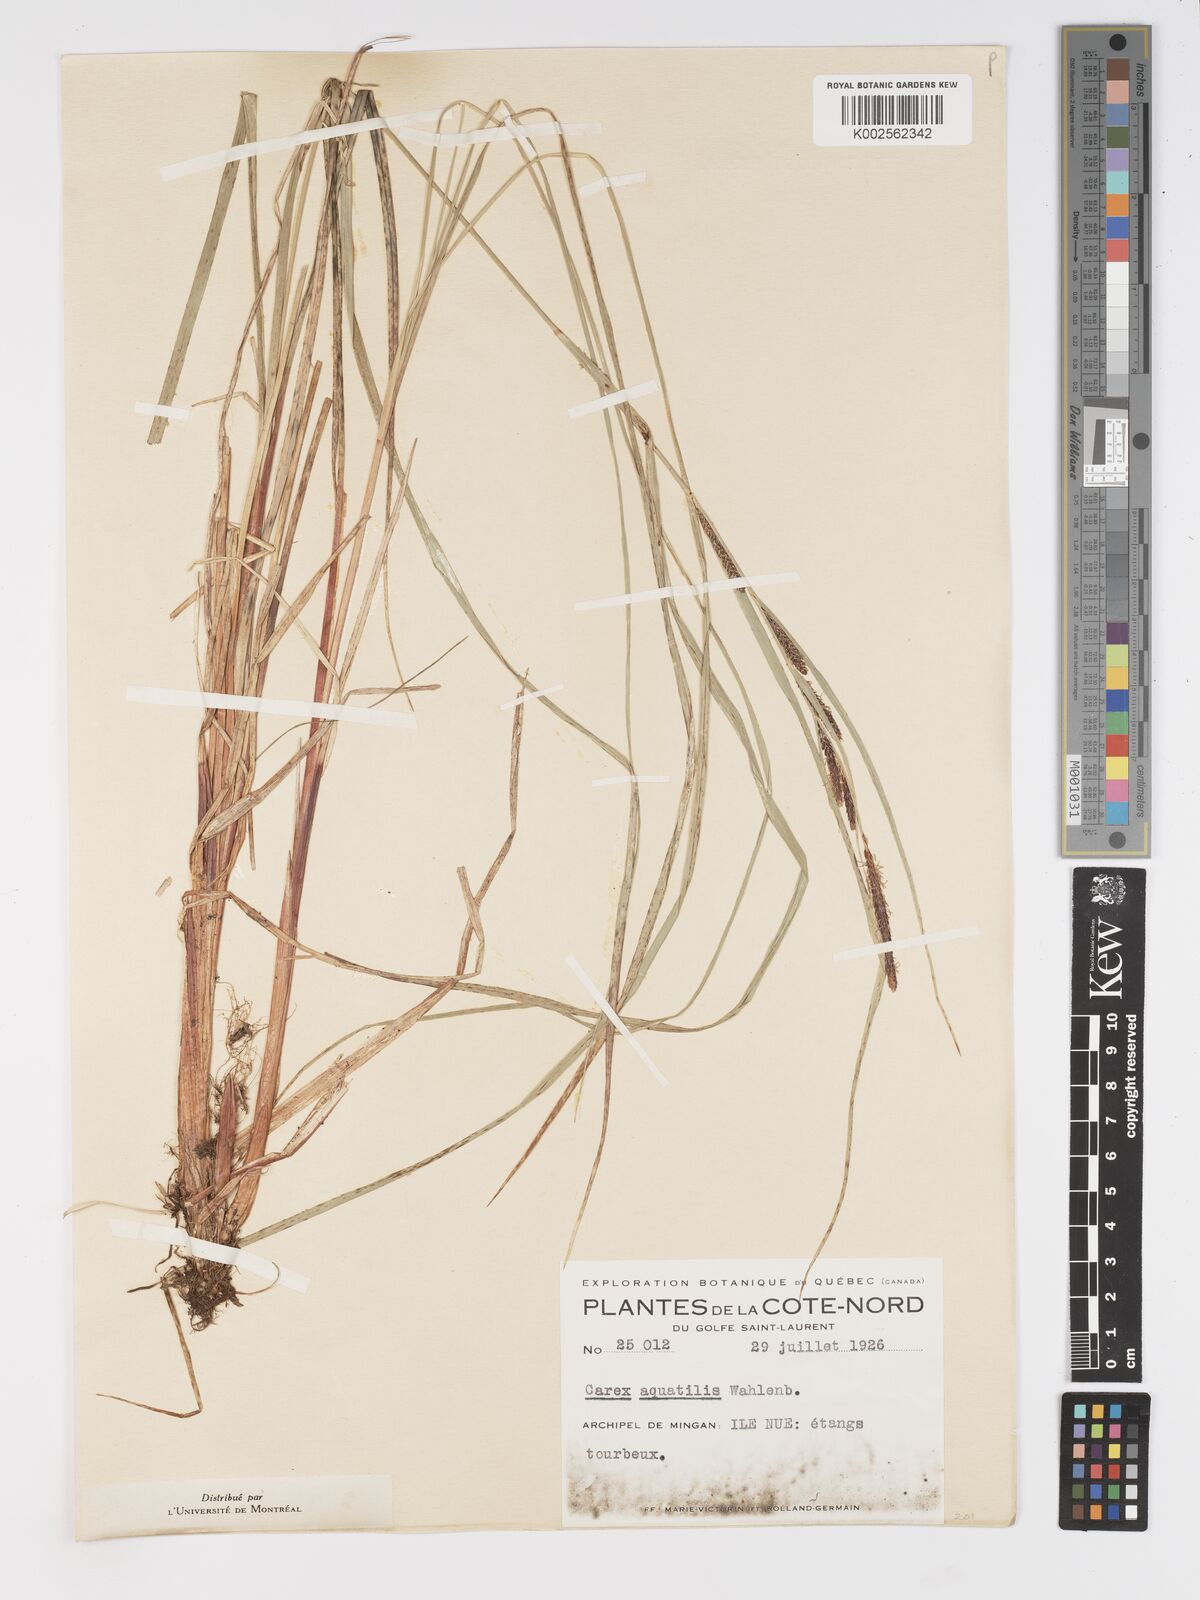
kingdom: Plantae
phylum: Tracheophyta
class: Liliopsida
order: Poales
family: Cyperaceae
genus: Carex
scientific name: Carex aquatilis
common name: Water sedge
